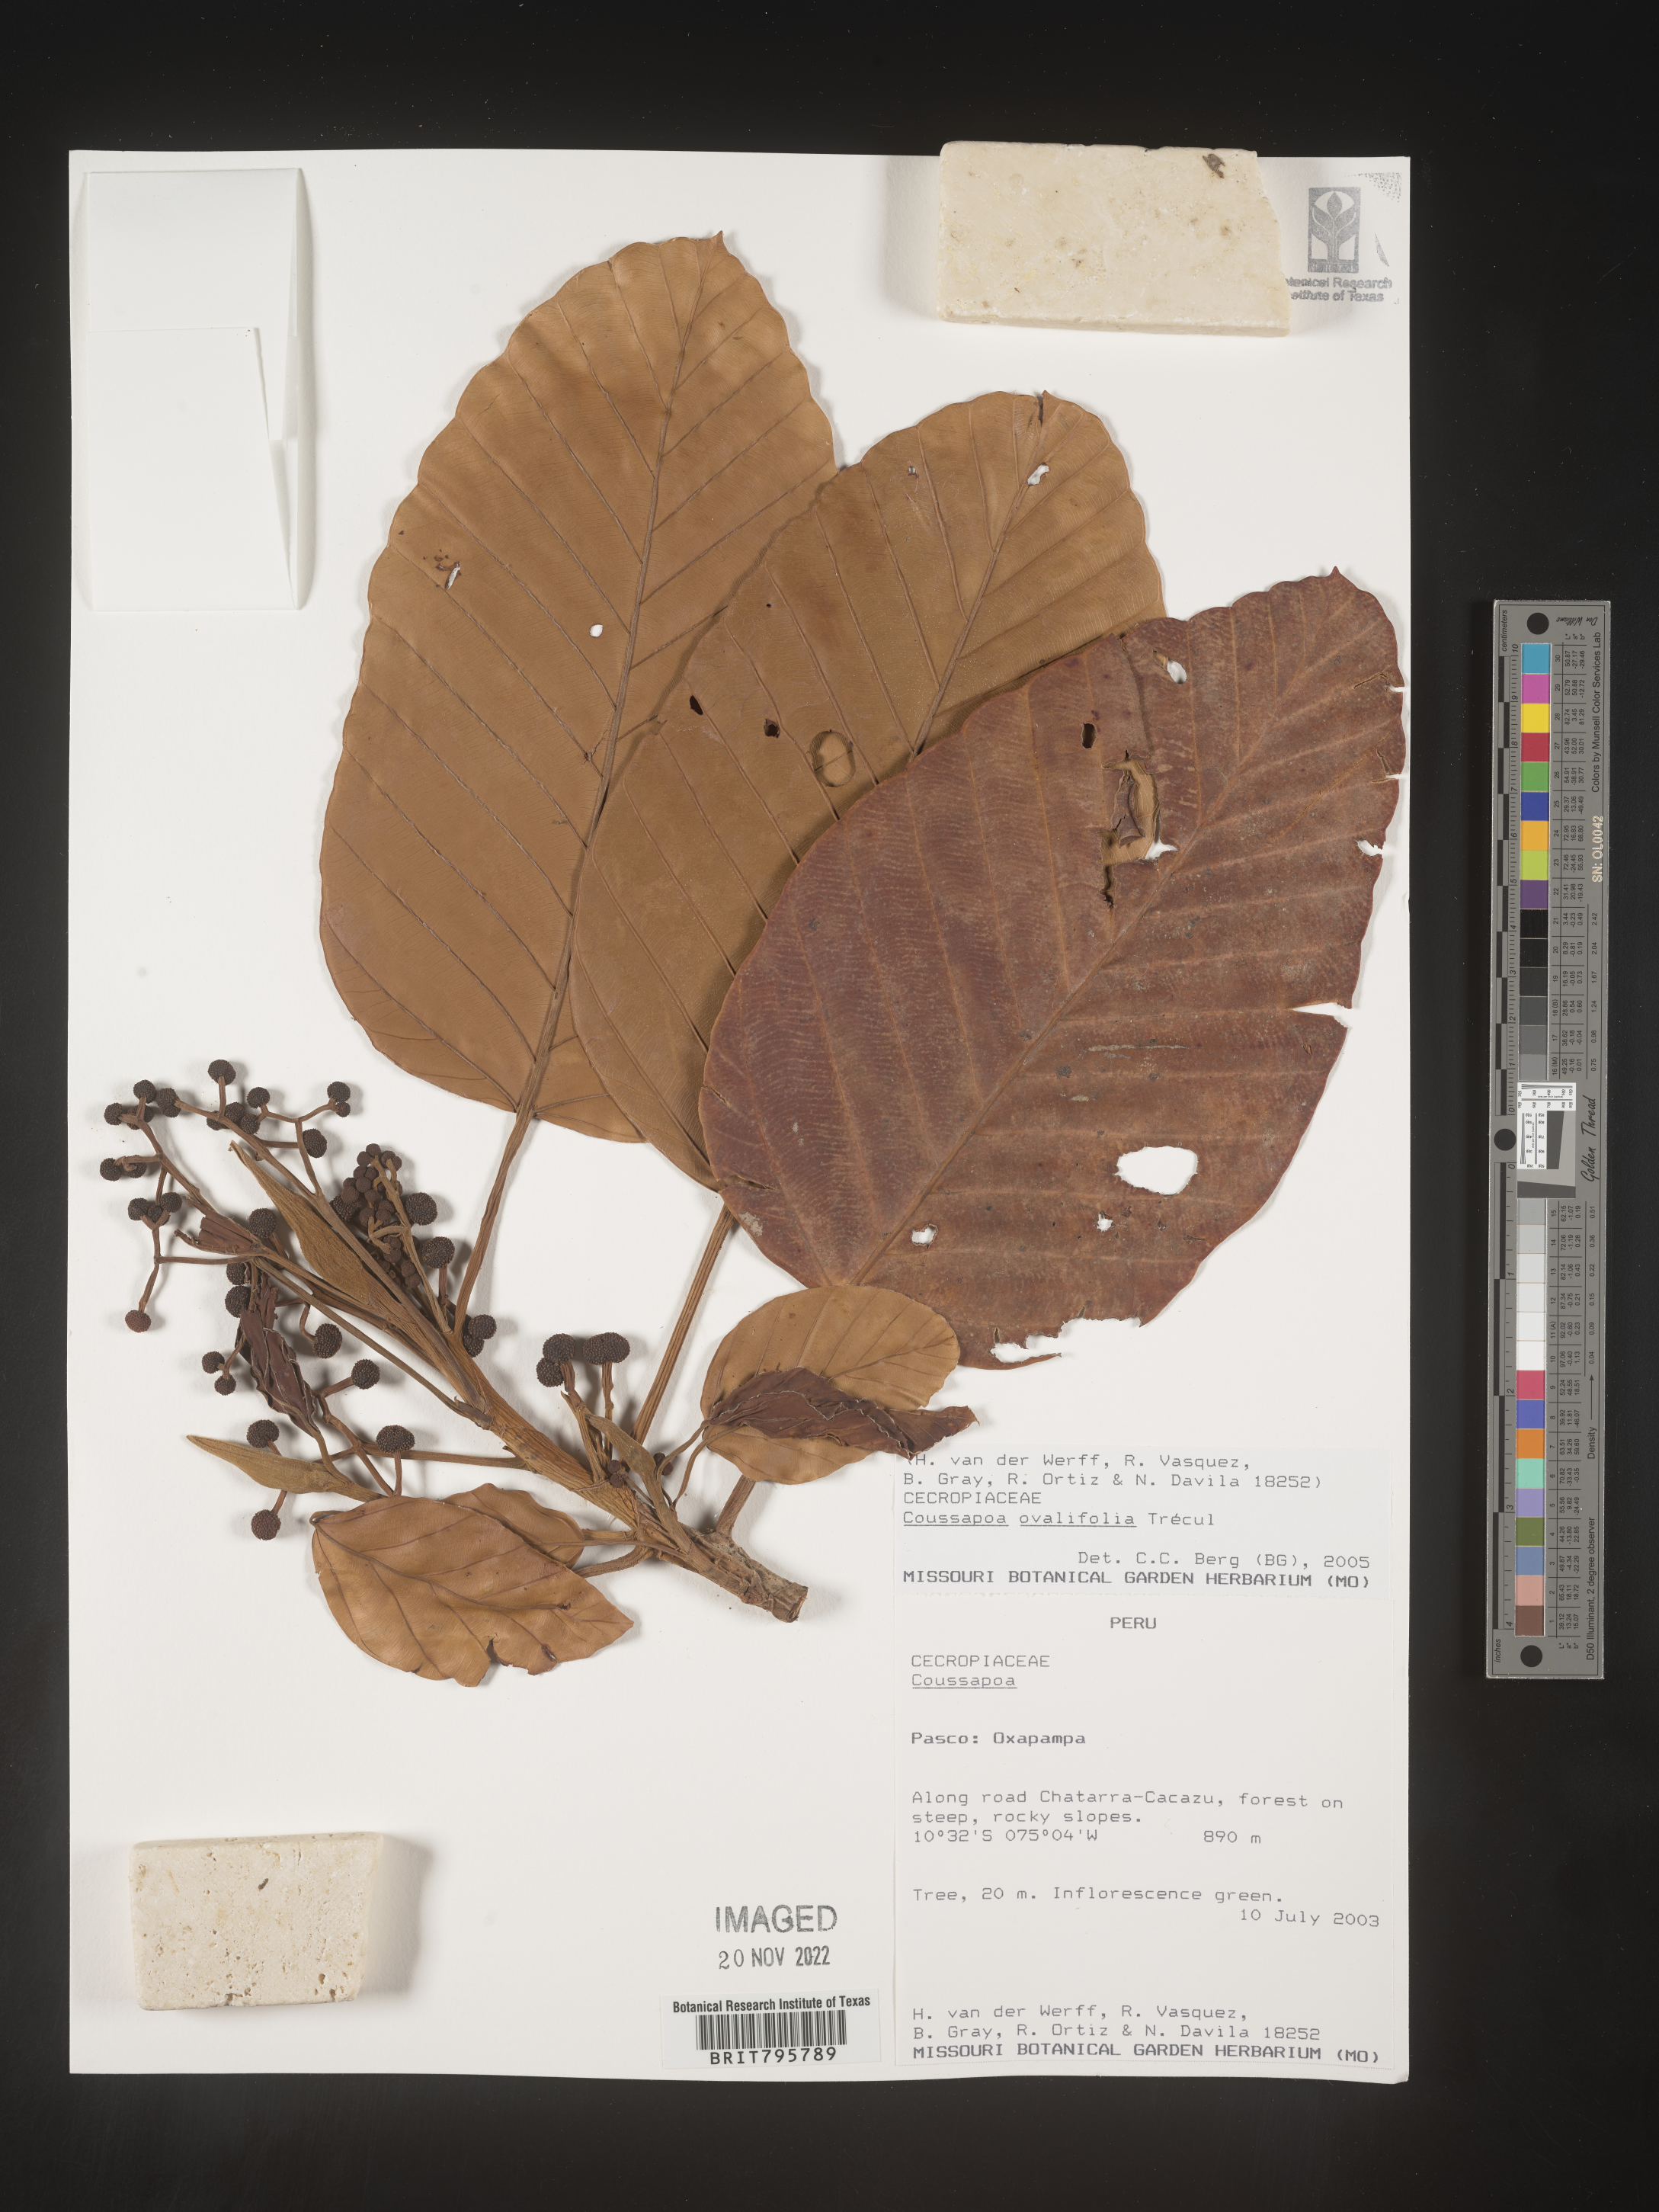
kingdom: Plantae
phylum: Tracheophyta
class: Magnoliopsida
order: Rosales
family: Urticaceae
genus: Coussapoa
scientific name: Coussapoa
